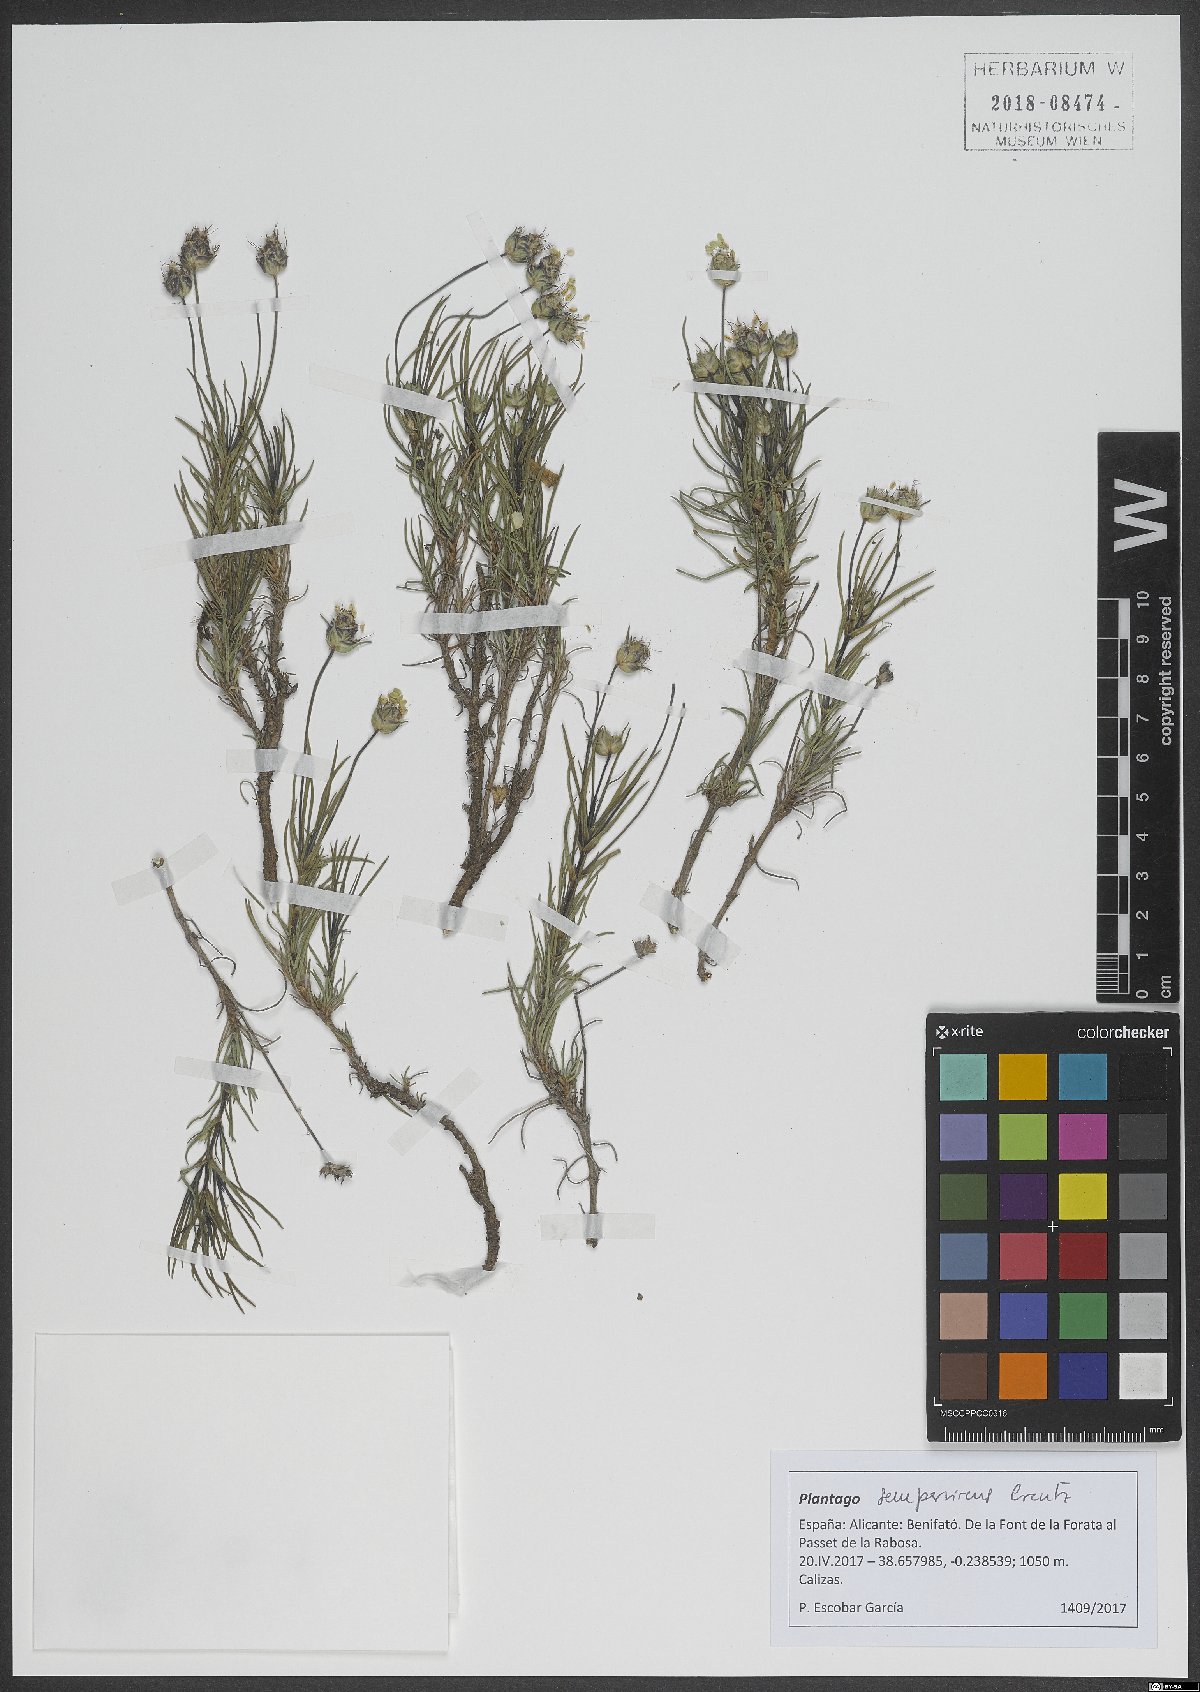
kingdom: Plantae
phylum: Tracheophyta
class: Magnoliopsida
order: Lamiales
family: Plantaginaceae
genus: Plantago
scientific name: Plantago sempervirens
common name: Shrubby plantain
